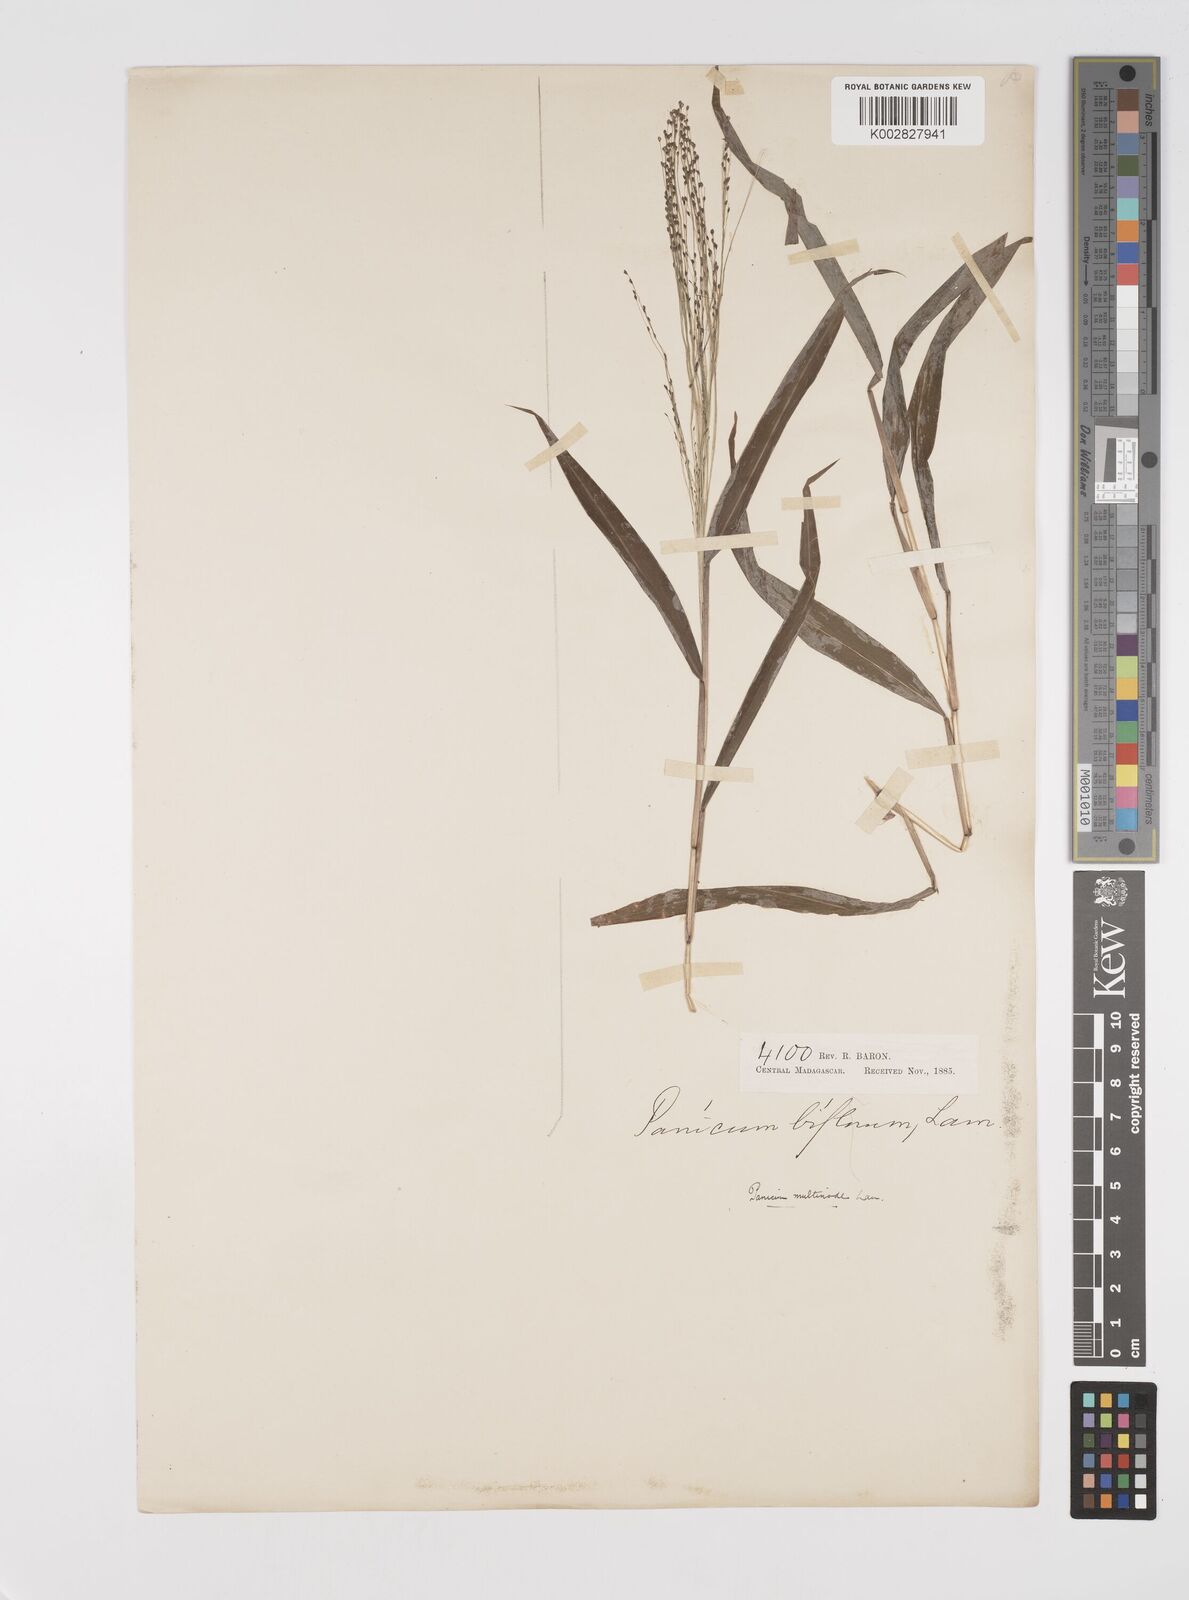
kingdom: Plantae
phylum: Tracheophyta
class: Liliopsida
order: Poales
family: Poaceae
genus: Cyrtococcum
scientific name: Cyrtococcum multinode
